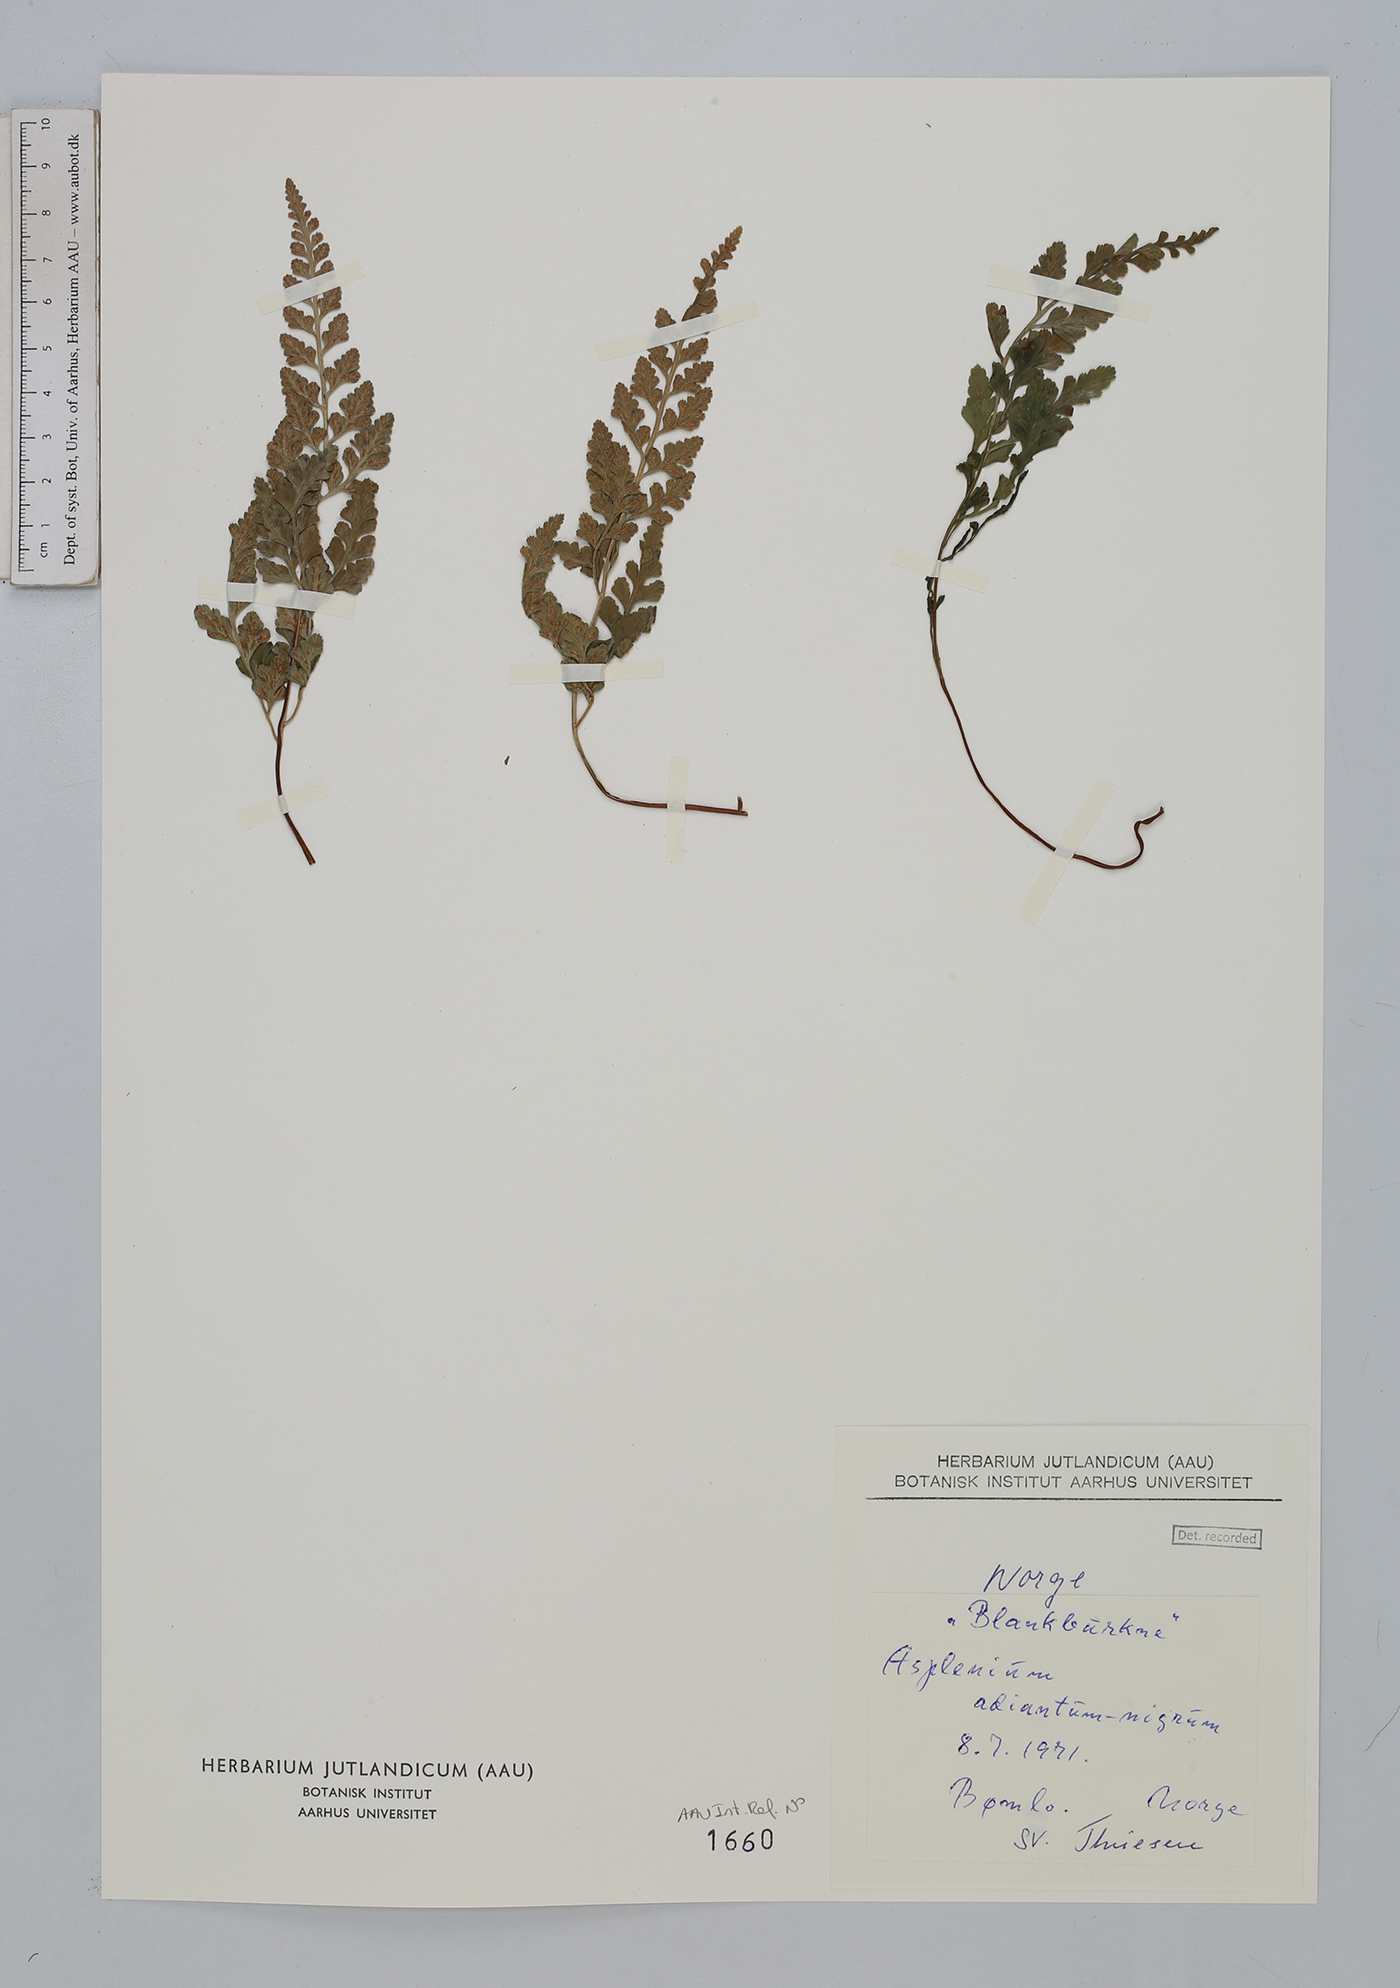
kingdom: Plantae
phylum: Tracheophyta
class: Polypodiopsida
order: Polypodiales
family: Aspleniaceae
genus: Asplenium
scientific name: Asplenium adiantum-nigrum
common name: Black spleenwort
